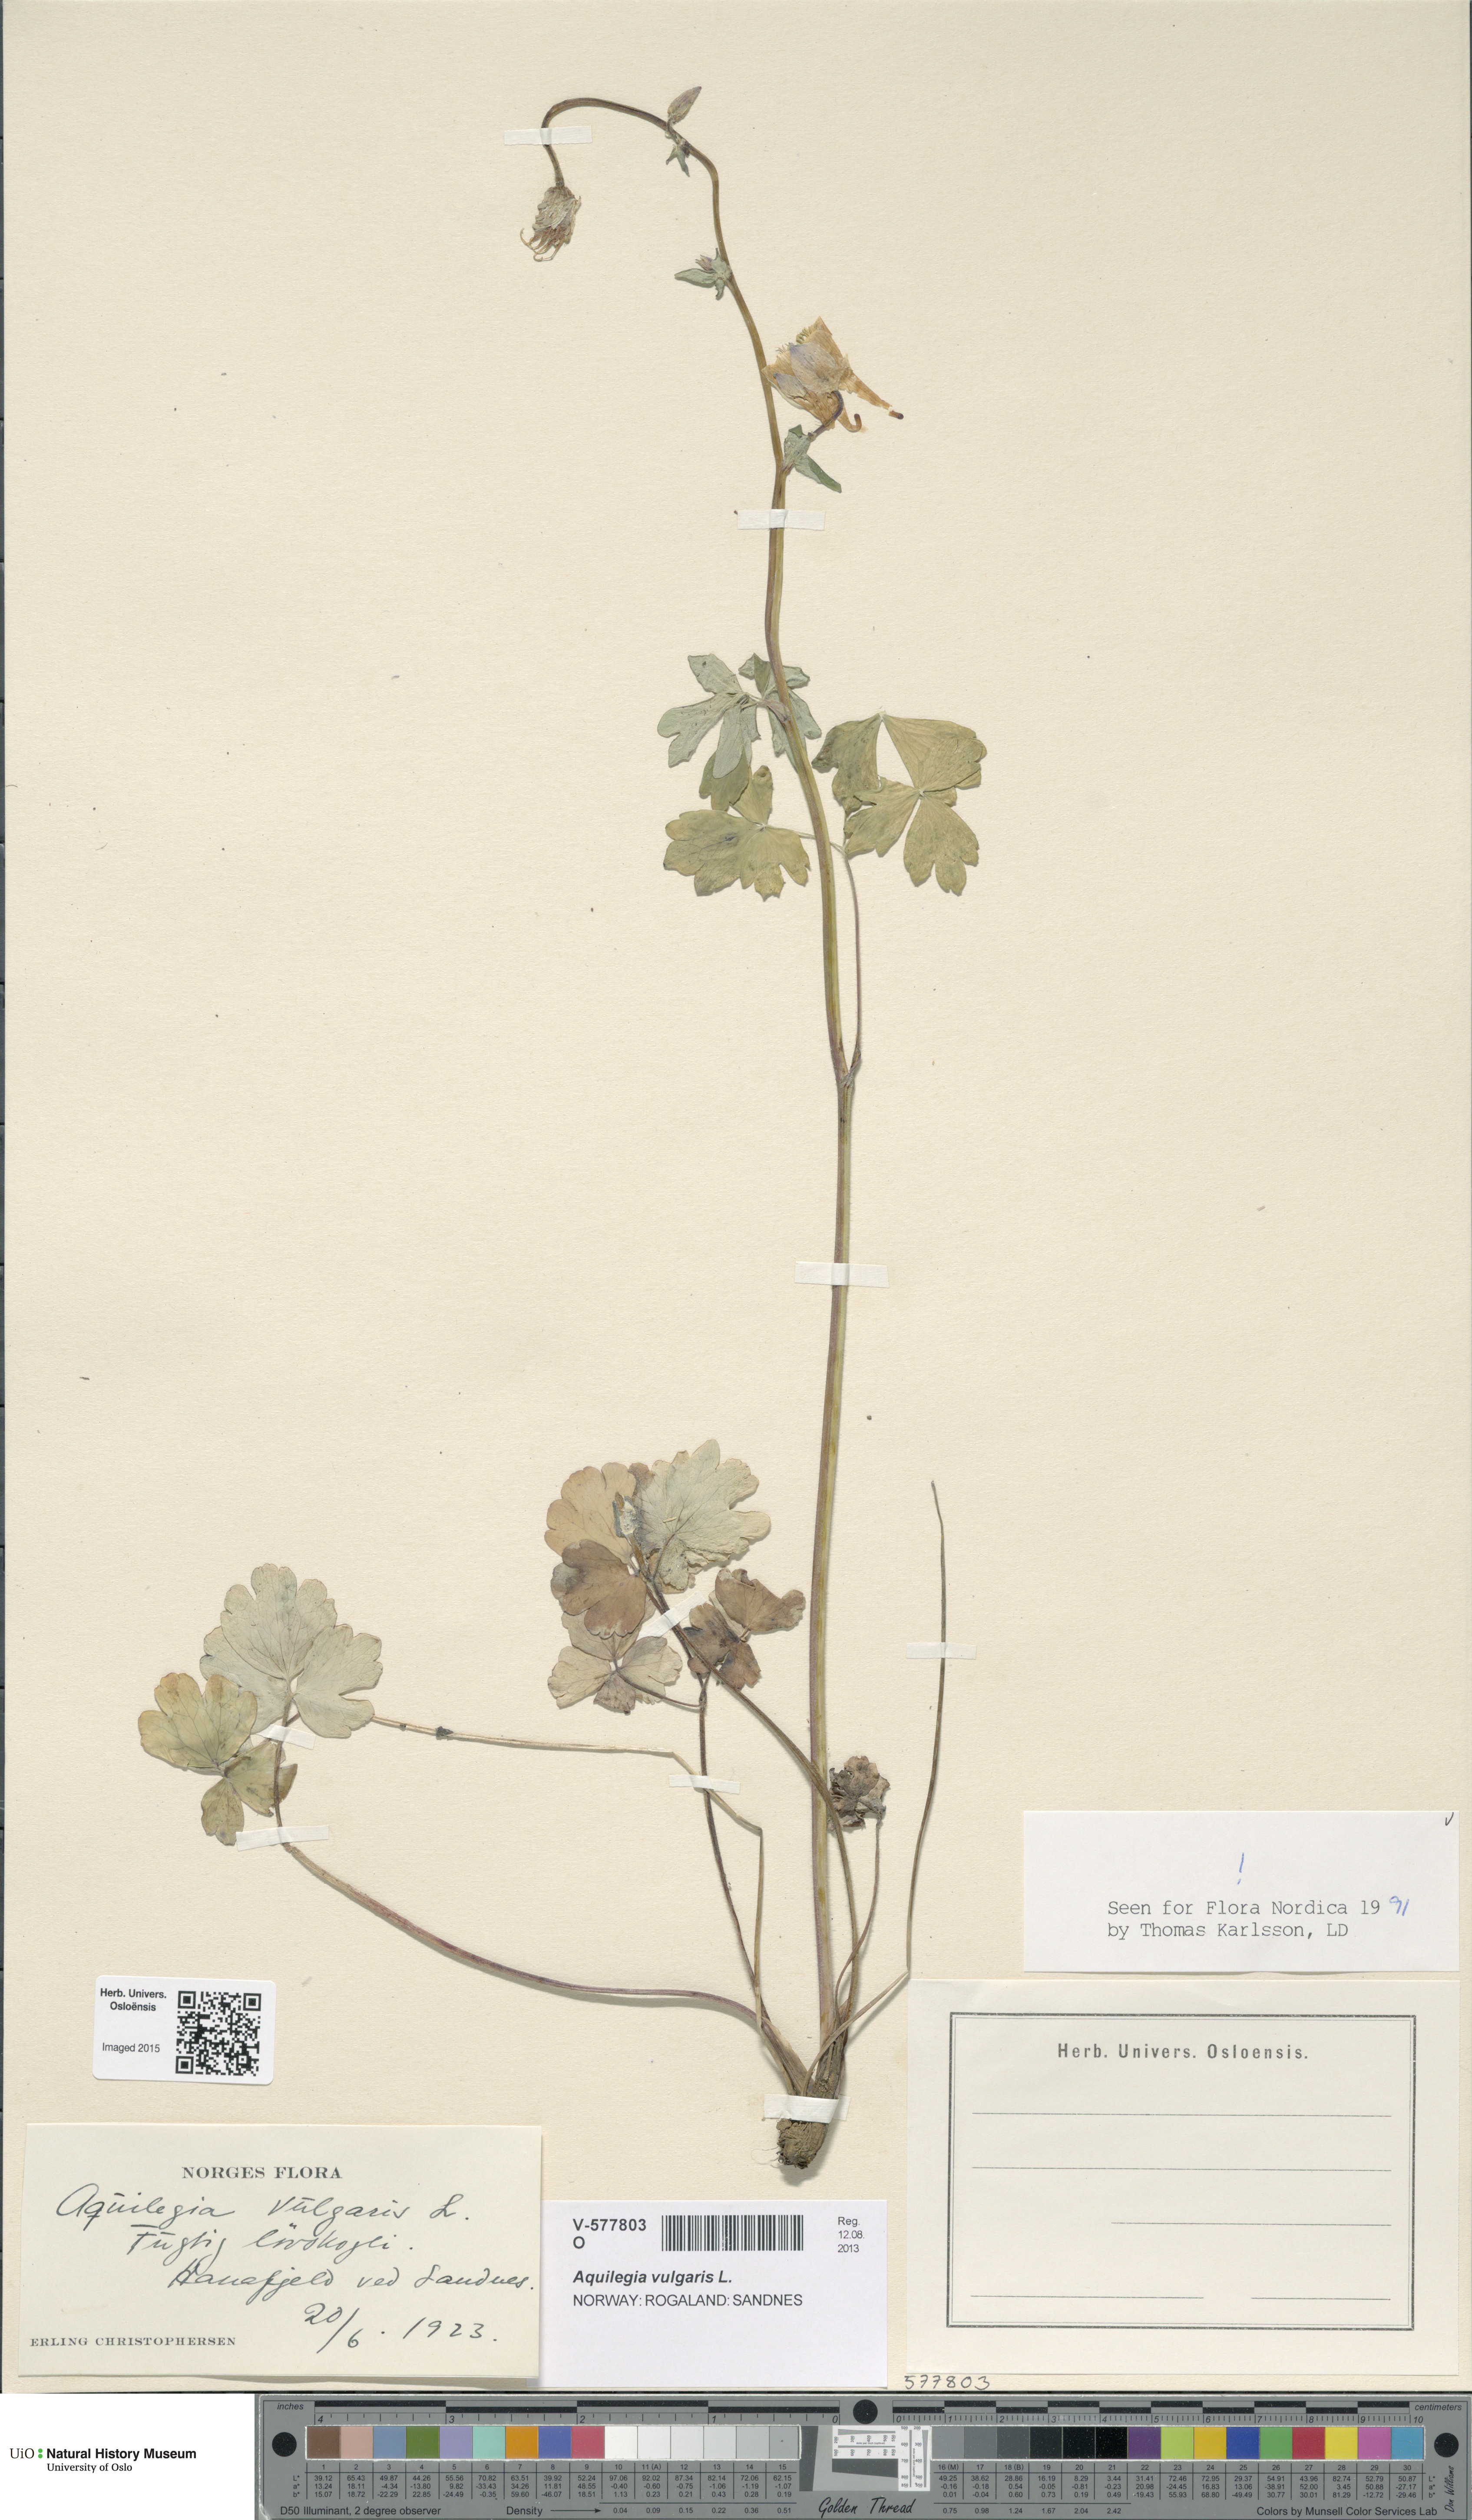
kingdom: Plantae
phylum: Tracheophyta
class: Magnoliopsida
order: Ranunculales
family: Ranunculaceae
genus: Aquilegia
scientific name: Aquilegia vulgaris
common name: Columbine
